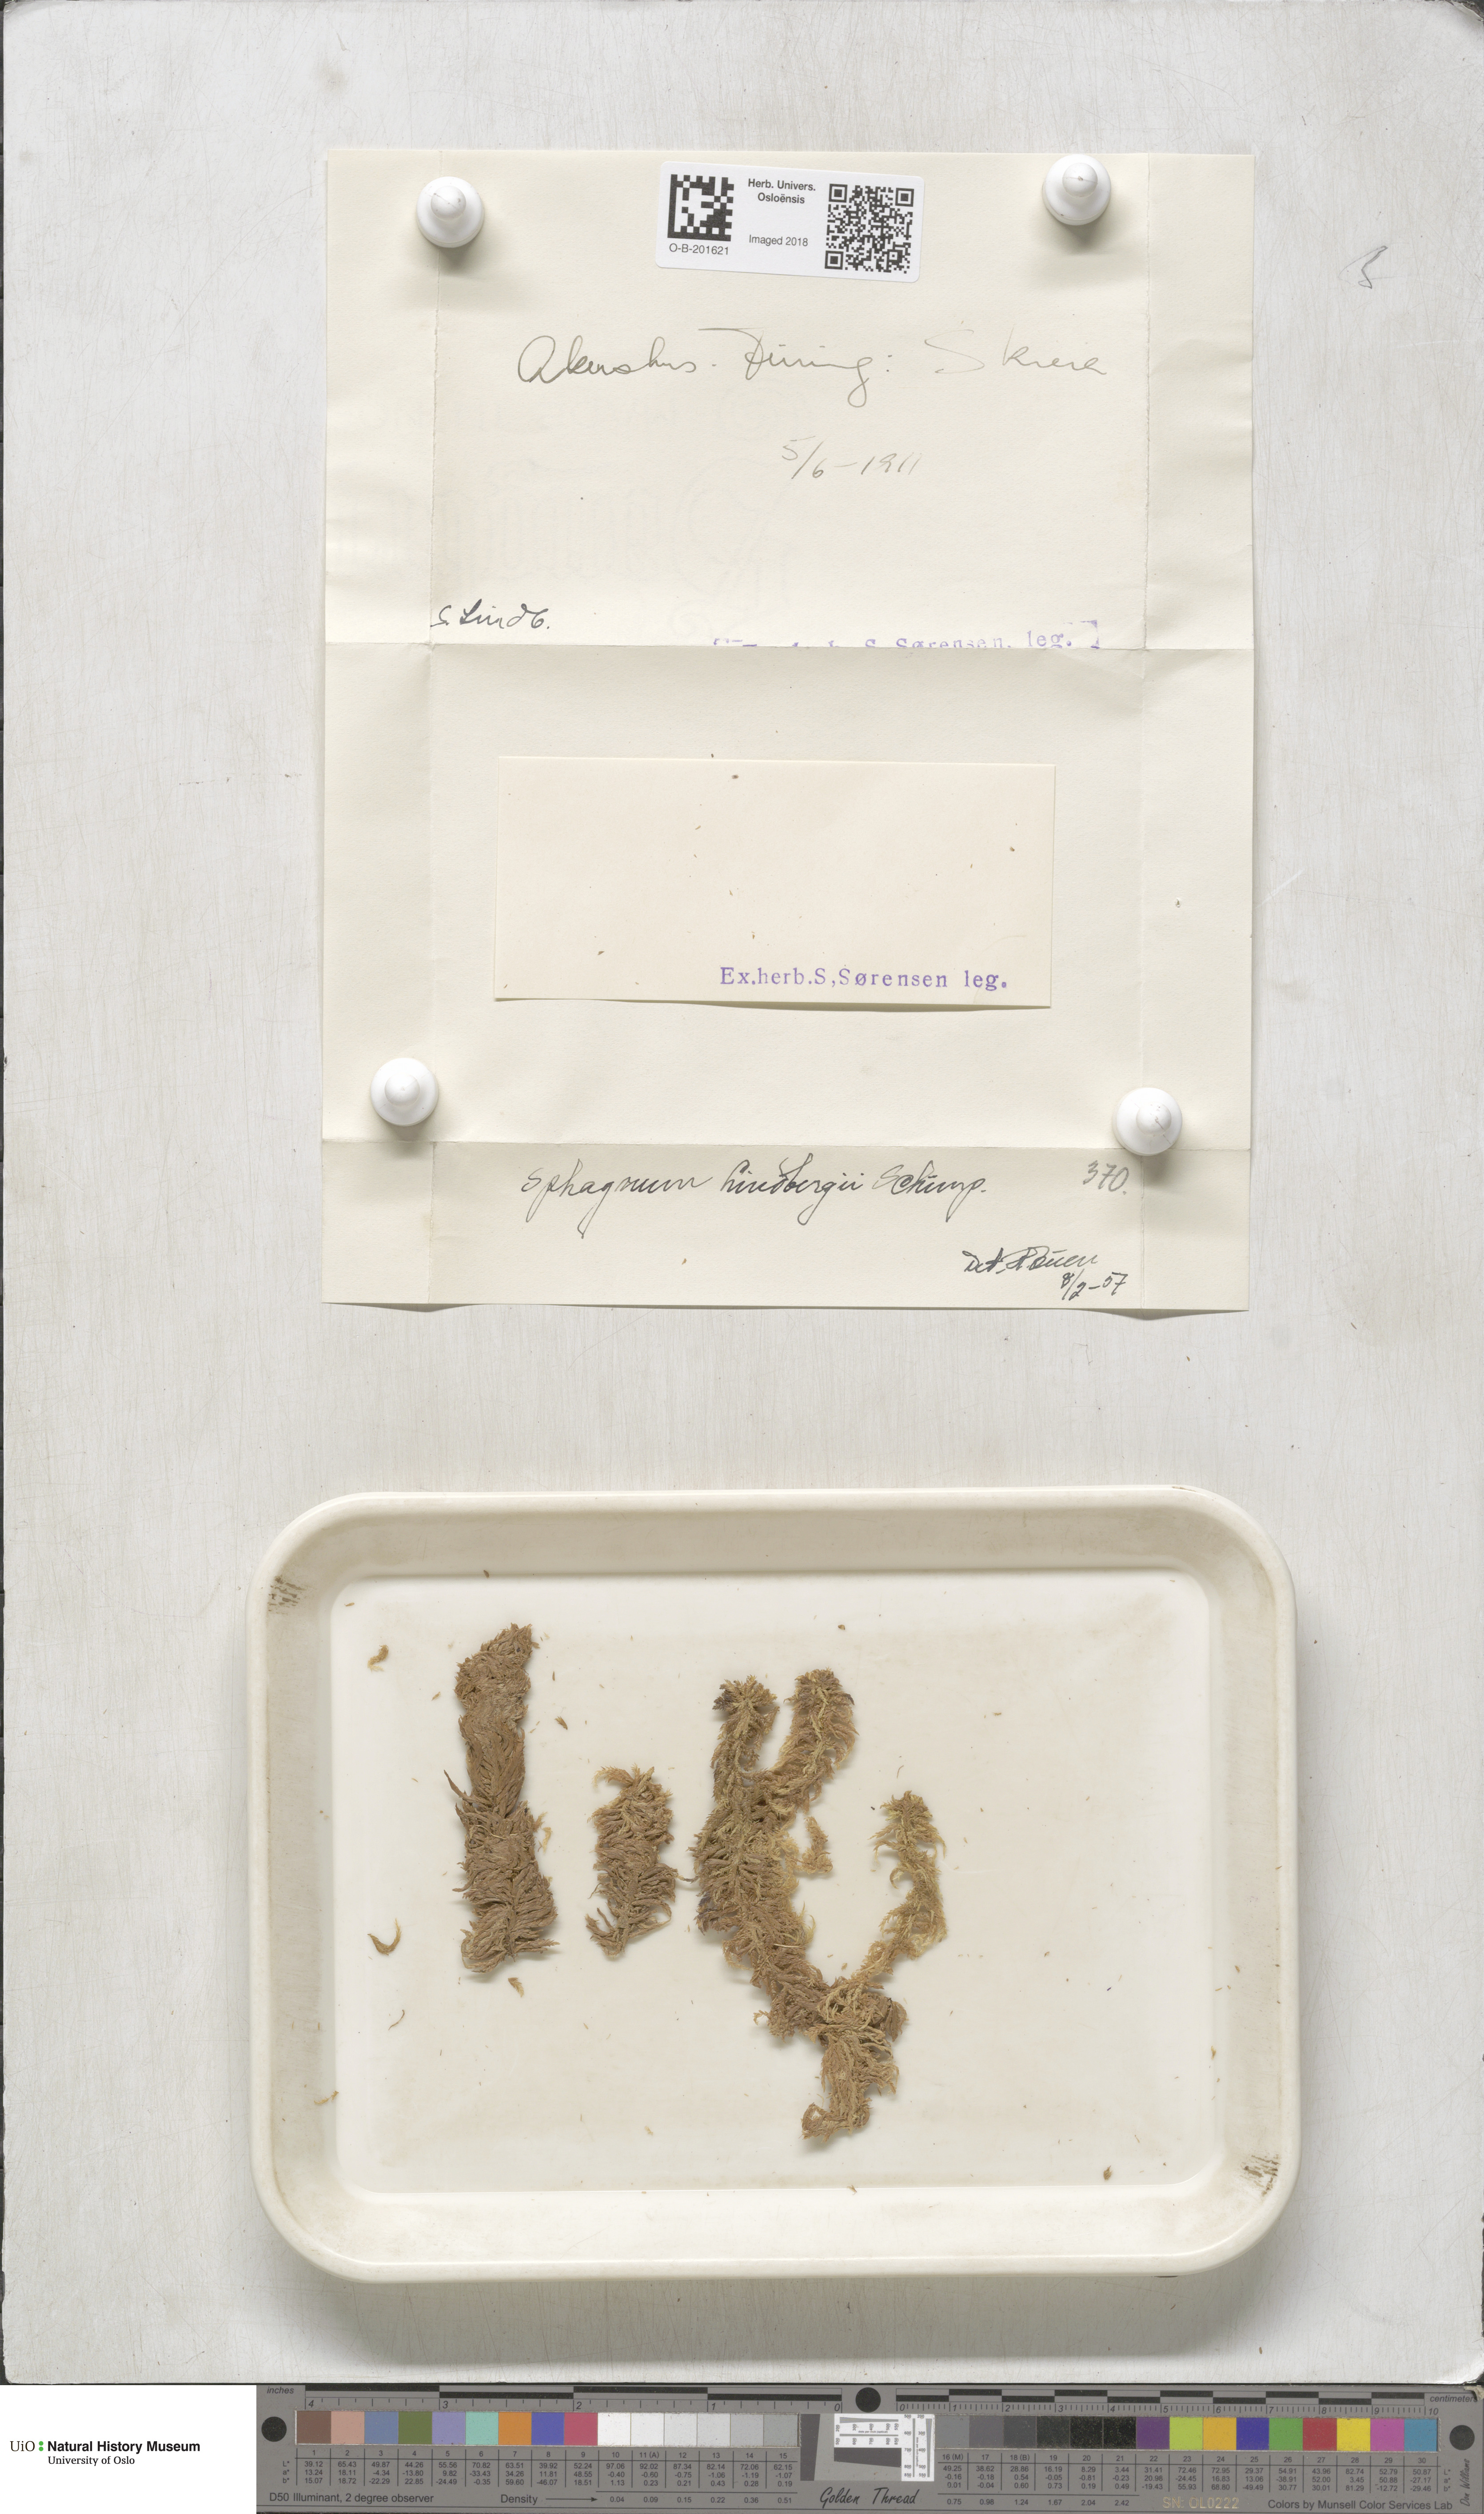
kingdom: Plantae
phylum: Bryophyta
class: Sphagnopsida
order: Sphagnales
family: Sphagnaceae
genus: Sphagnum
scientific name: Sphagnum lindbergii
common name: Lindberg's peat moss
